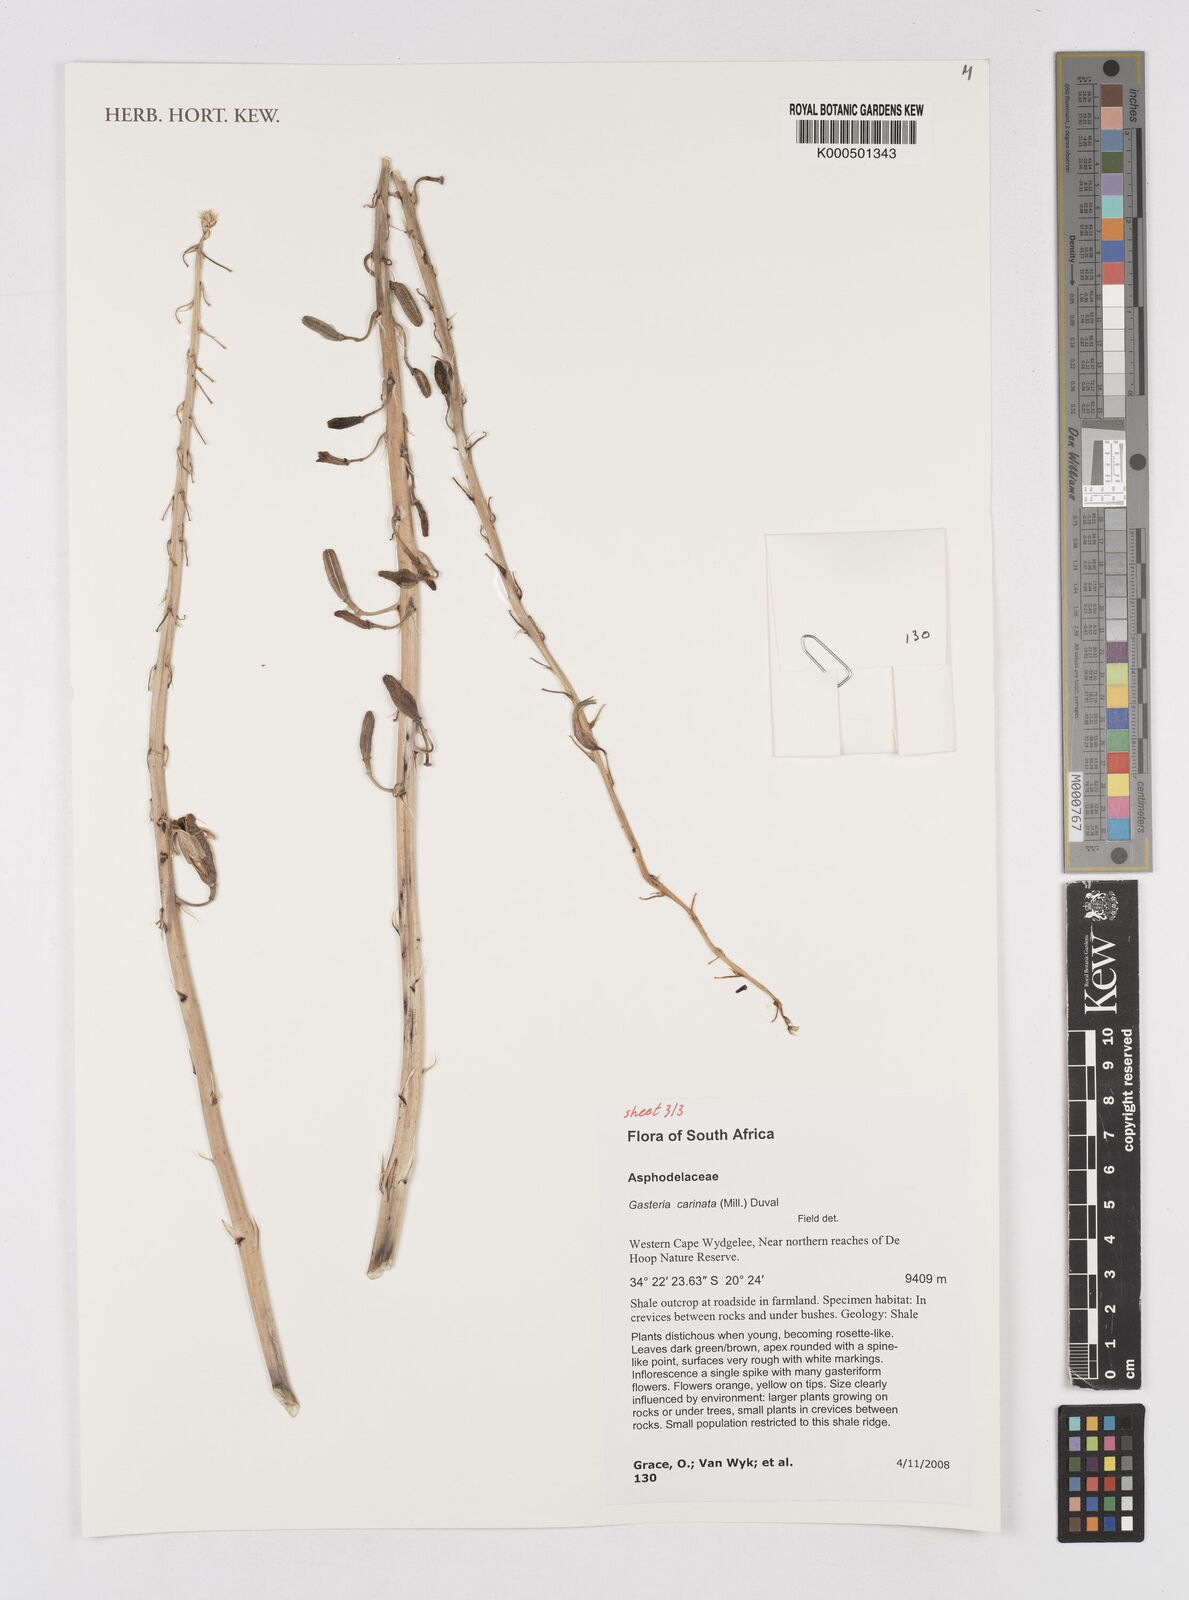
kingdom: Plantae
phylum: Tracheophyta
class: Liliopsida
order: Asparagales
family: Asphodelaceae
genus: Gasteria
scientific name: Gasteria carinata
